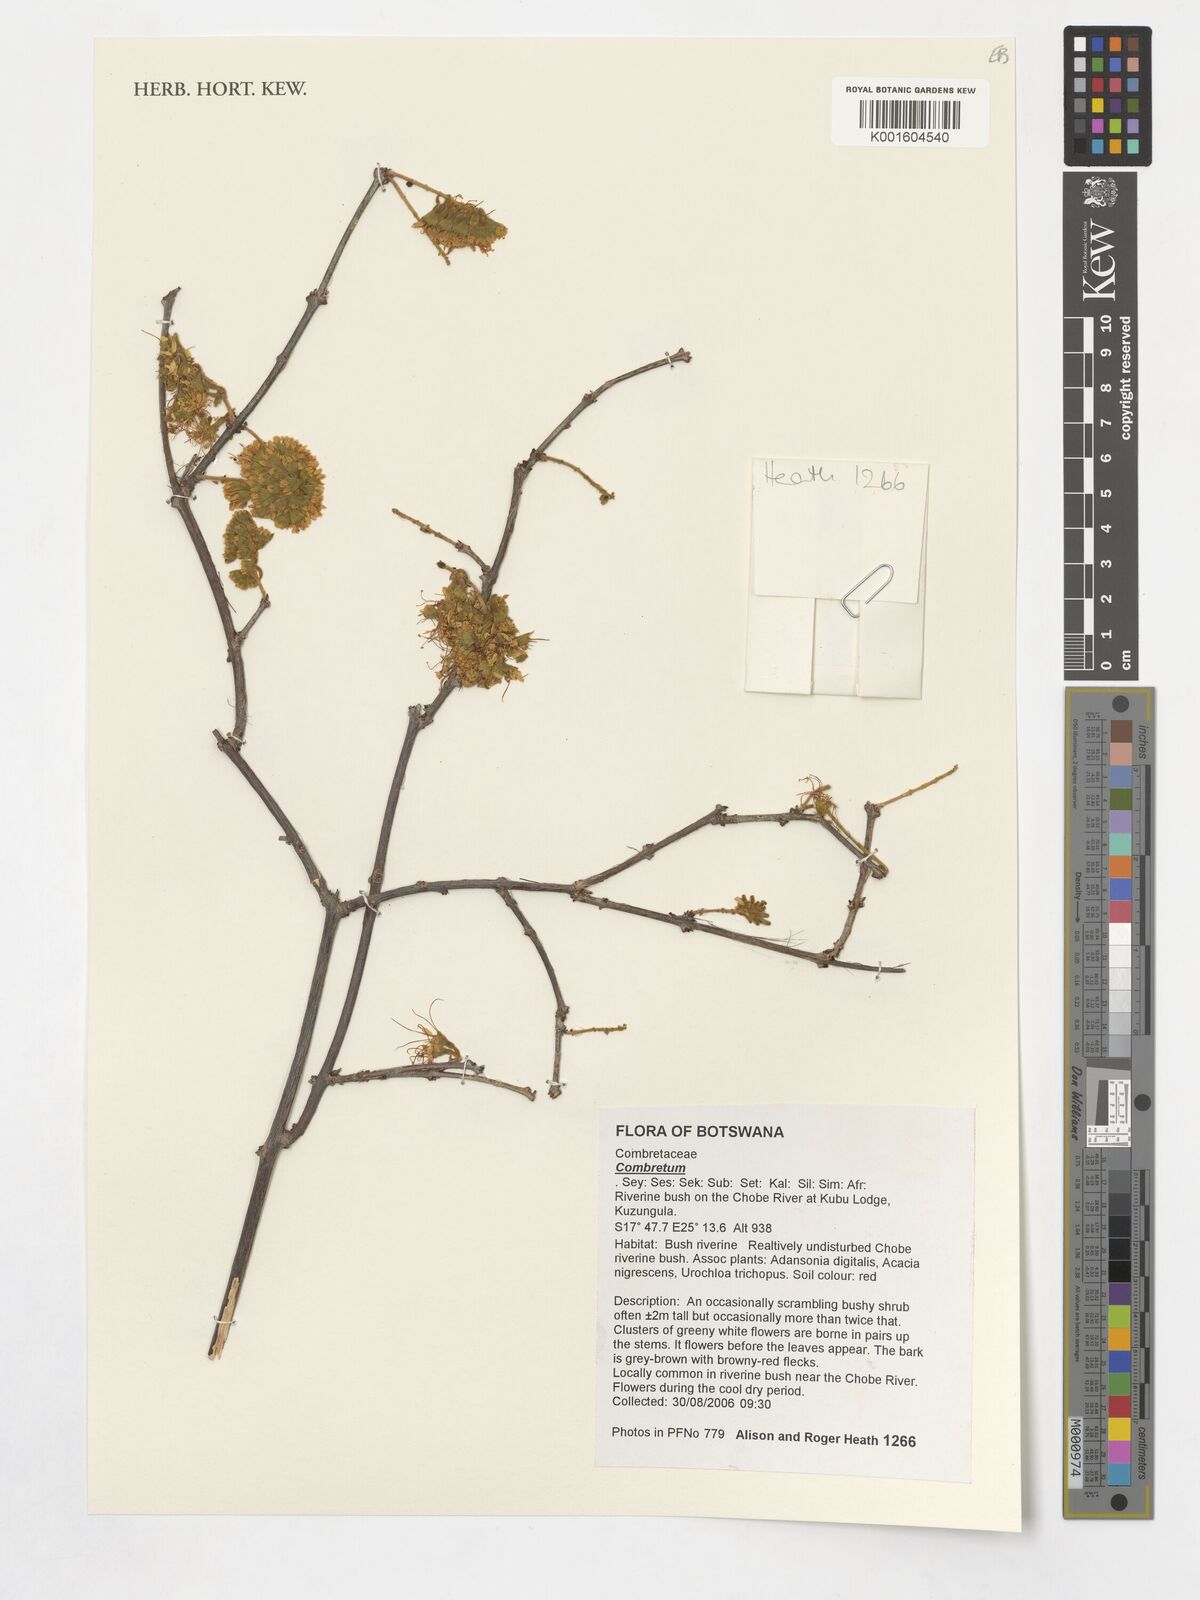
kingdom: Plantae
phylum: Tracheophyta
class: Magnoliopsida
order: Myrtales
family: Combretaceae
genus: Combretum
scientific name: Combretum
